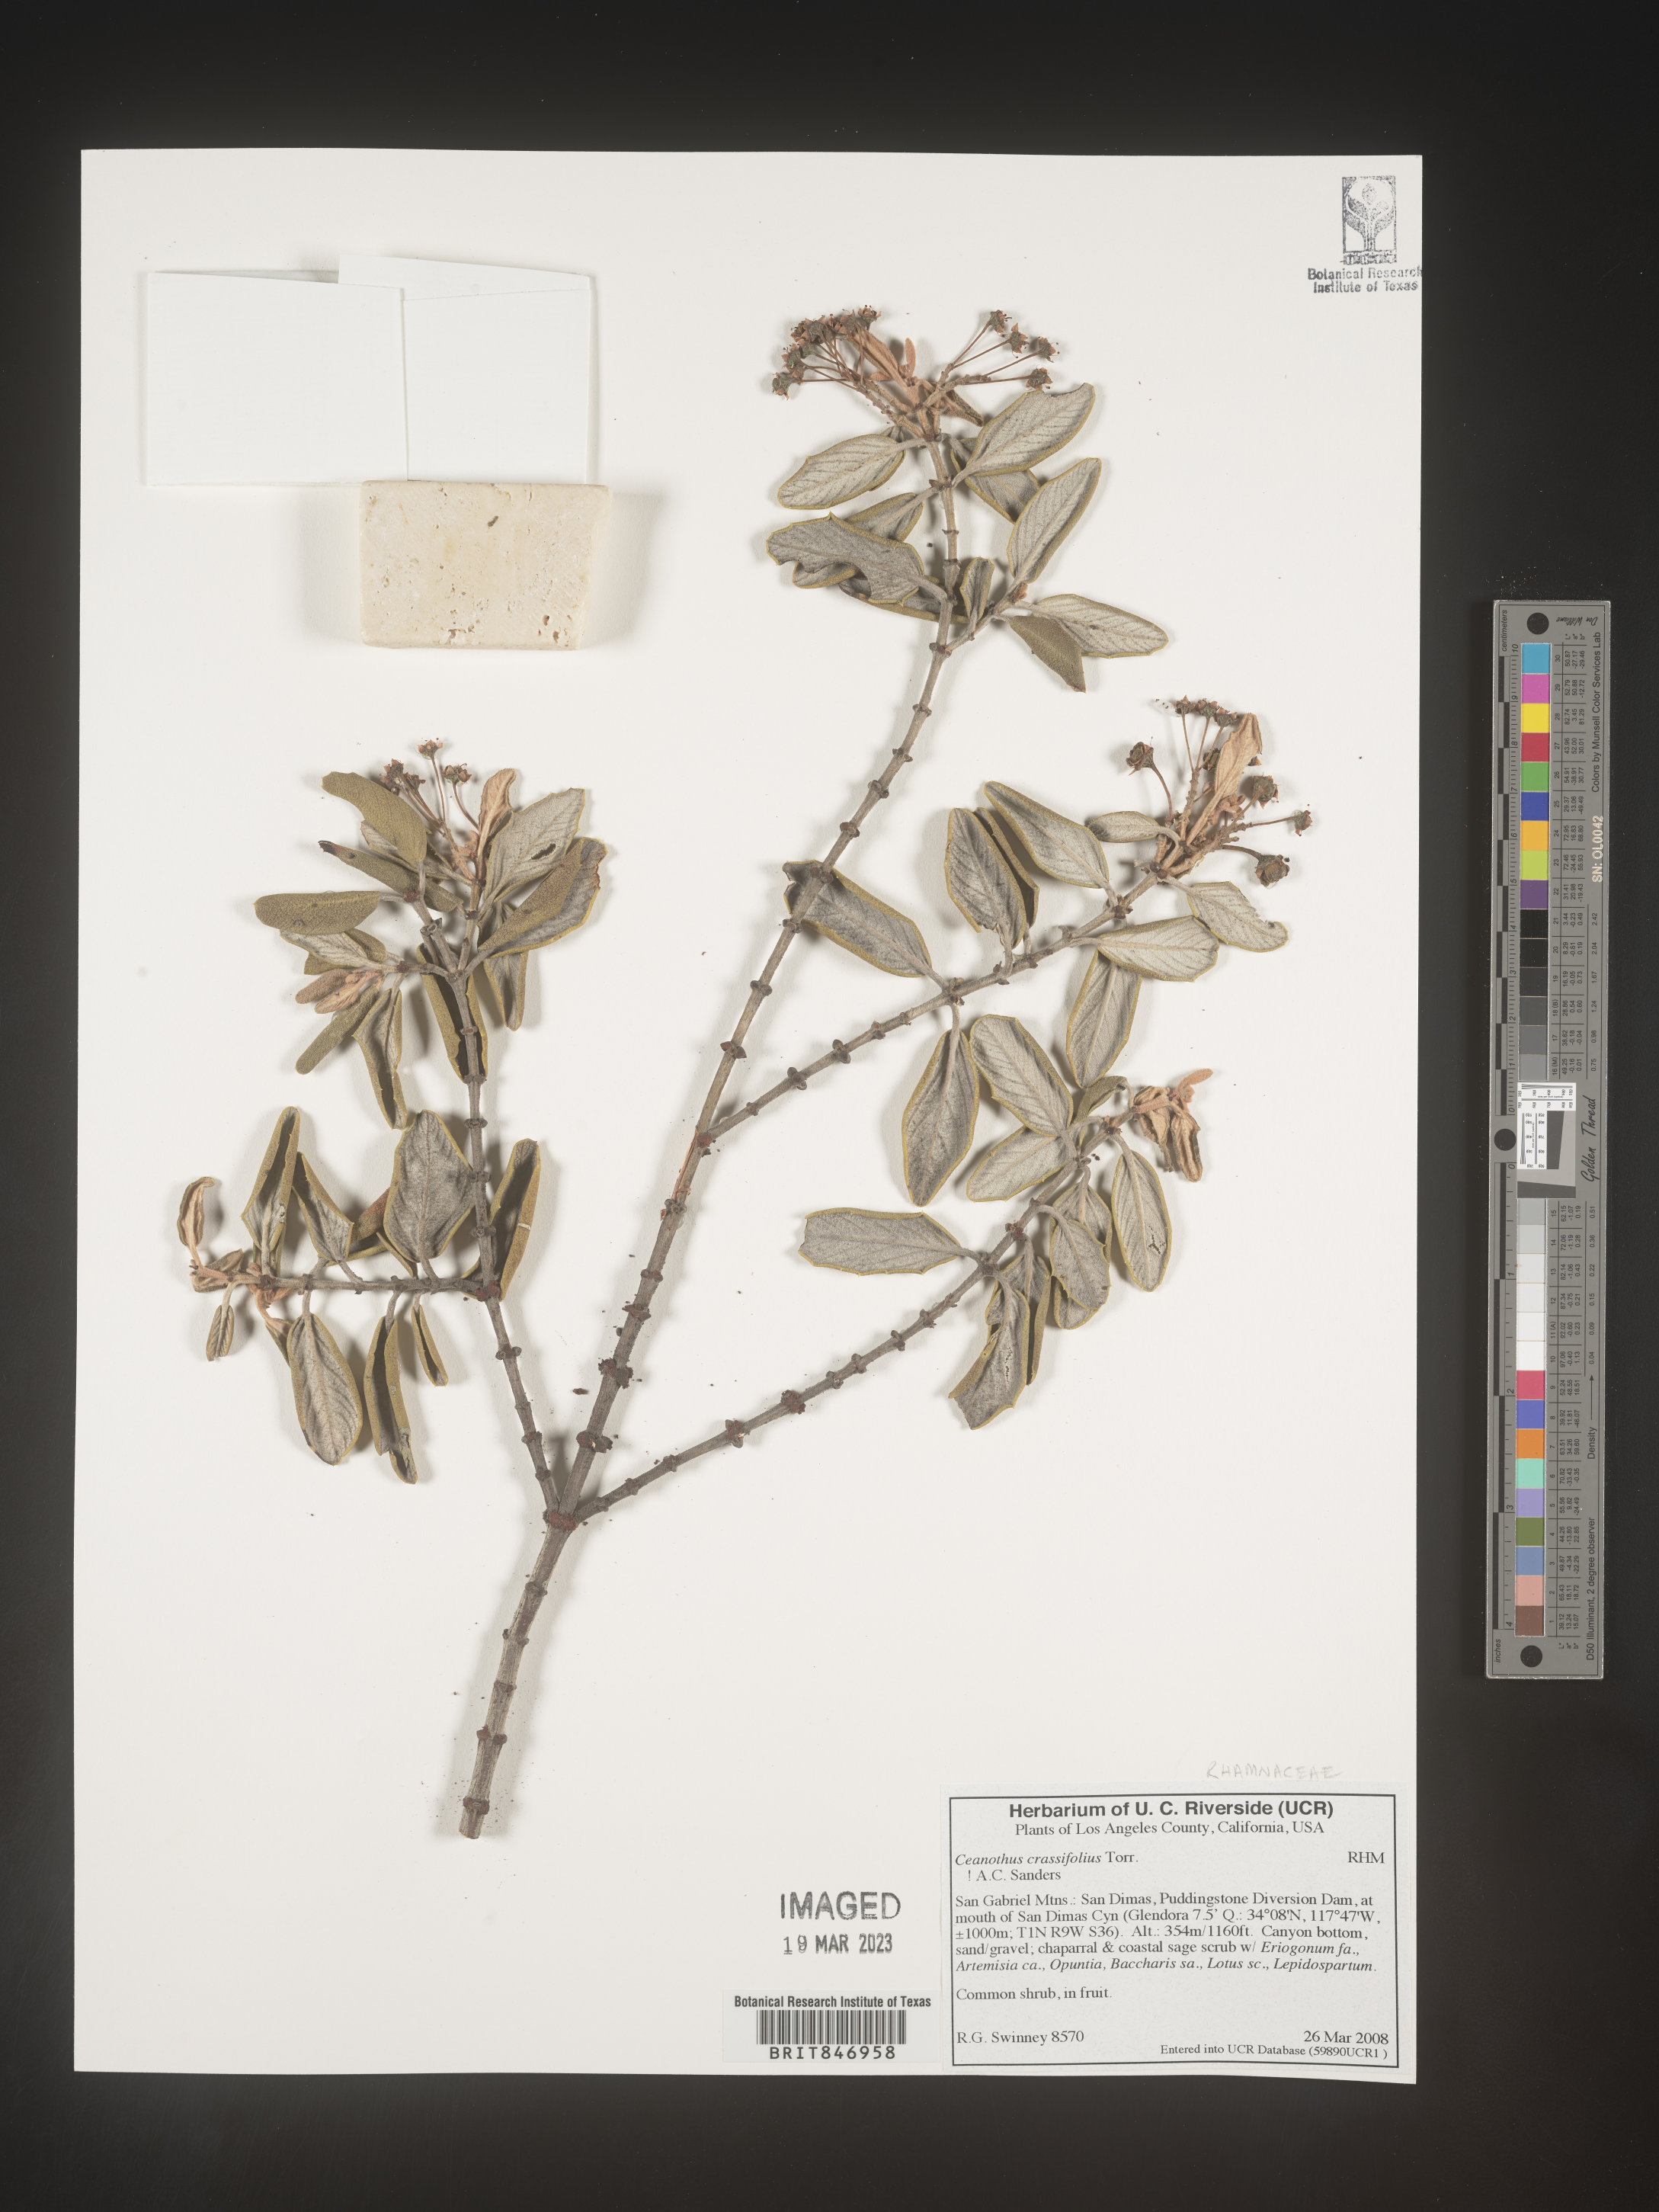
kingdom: Plantae
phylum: Tracheophyta
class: Magnoliopsida
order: Rosales
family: Rhamnaceae
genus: Ceanothus
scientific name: Ceanothus crassifolius
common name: Hoaryleaf ceanothus
